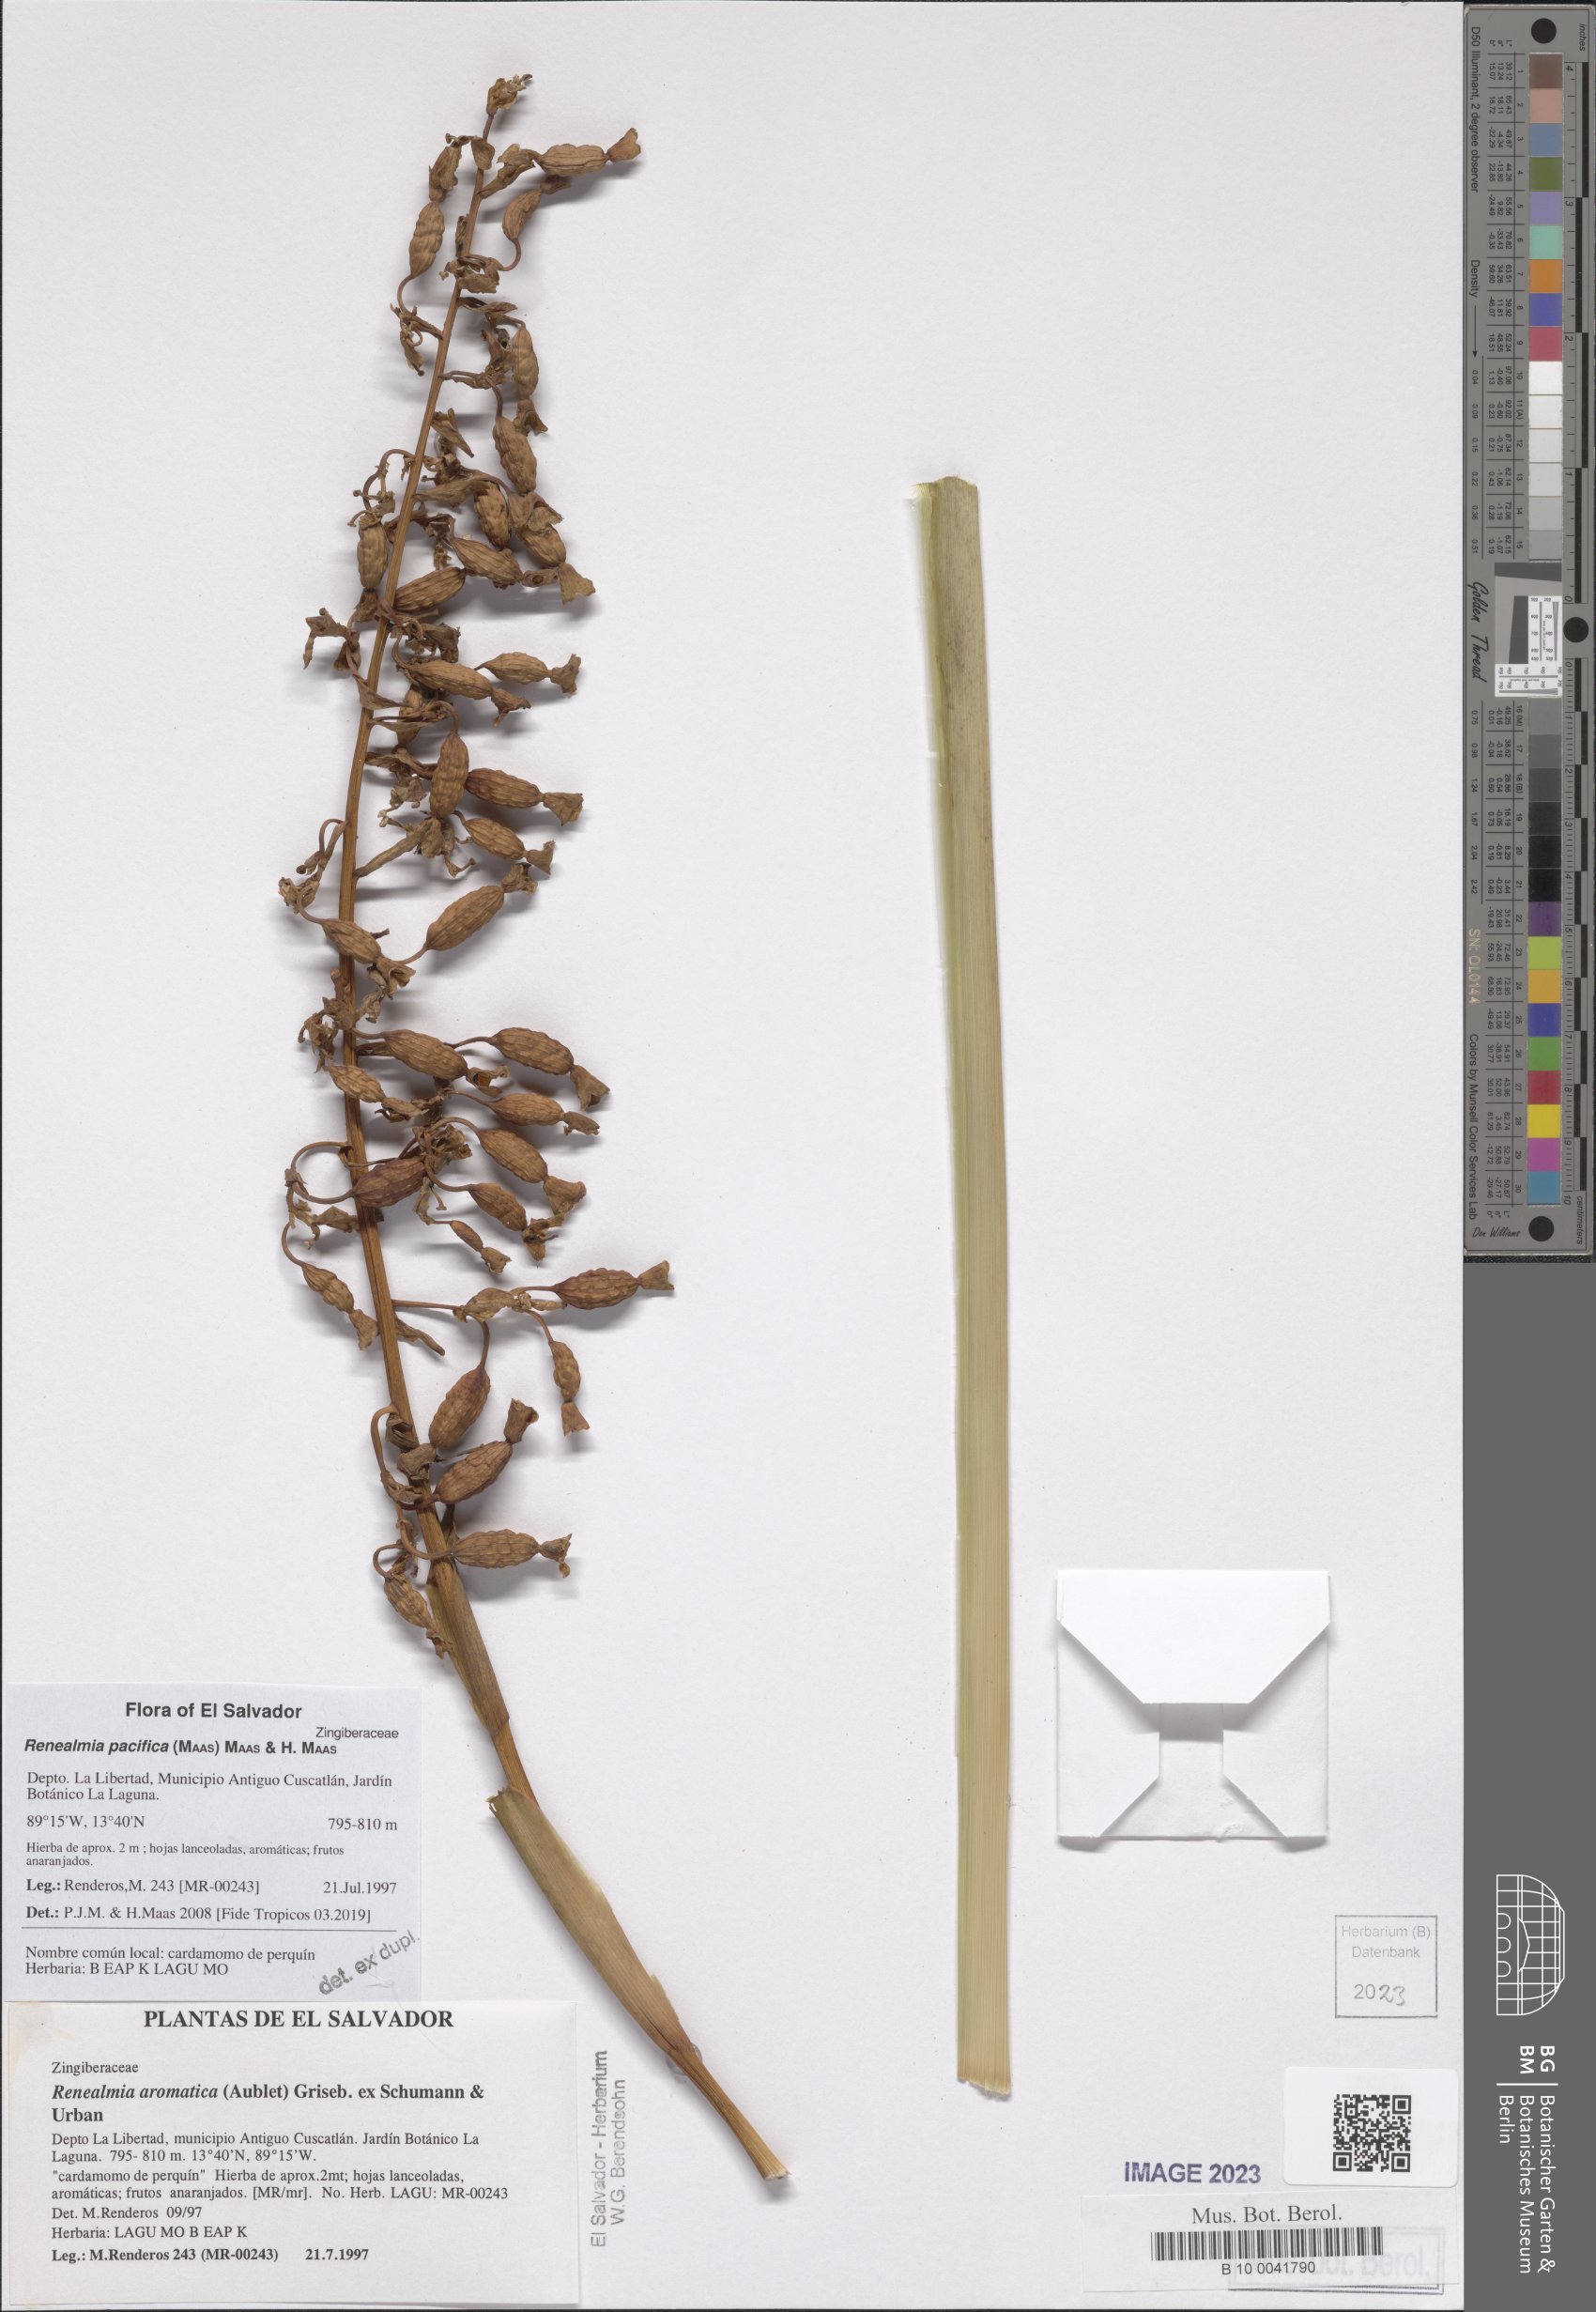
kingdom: Plantae
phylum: Tracheophyta
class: Liliopsida
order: Zingiberales
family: Zingiberaceae
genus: Renealmia
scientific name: Renealmia pacifica
